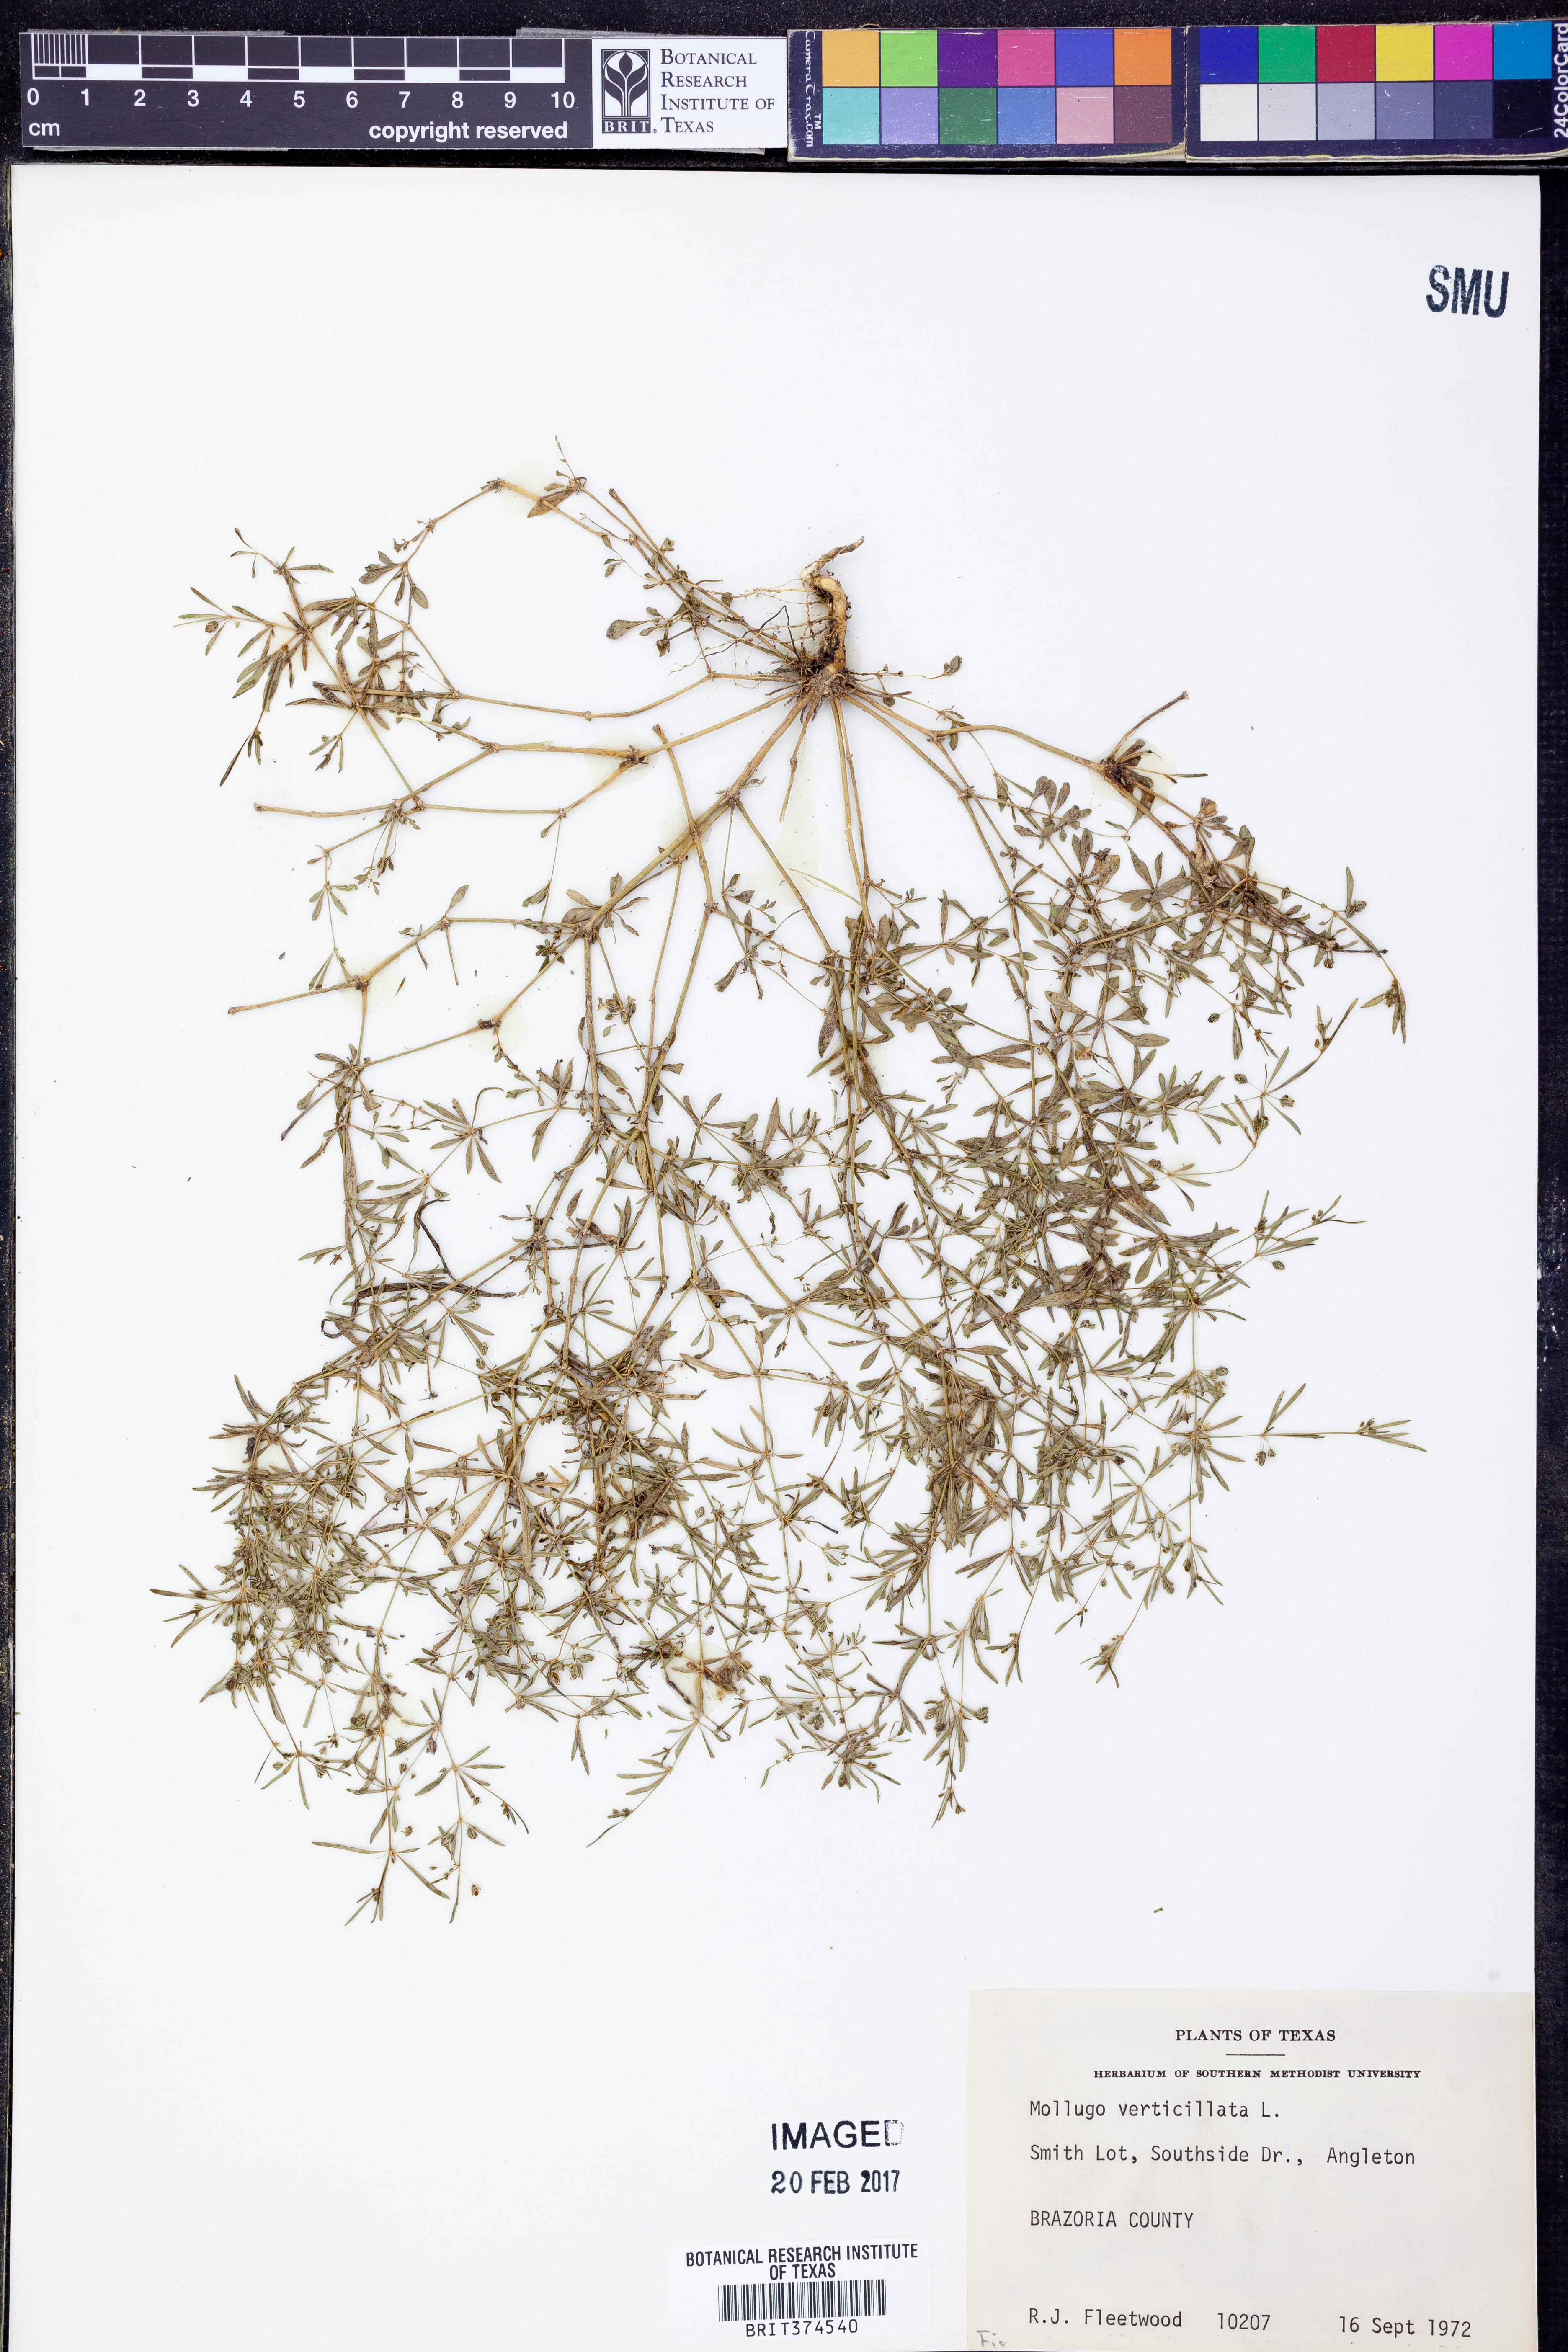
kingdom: Plantae
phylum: Tracheophyta
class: Magnoliopsida
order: Caryophyllales
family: Molluginaceae
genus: Mollugo
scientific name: Mollugo verticillata
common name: Green carpetweed
